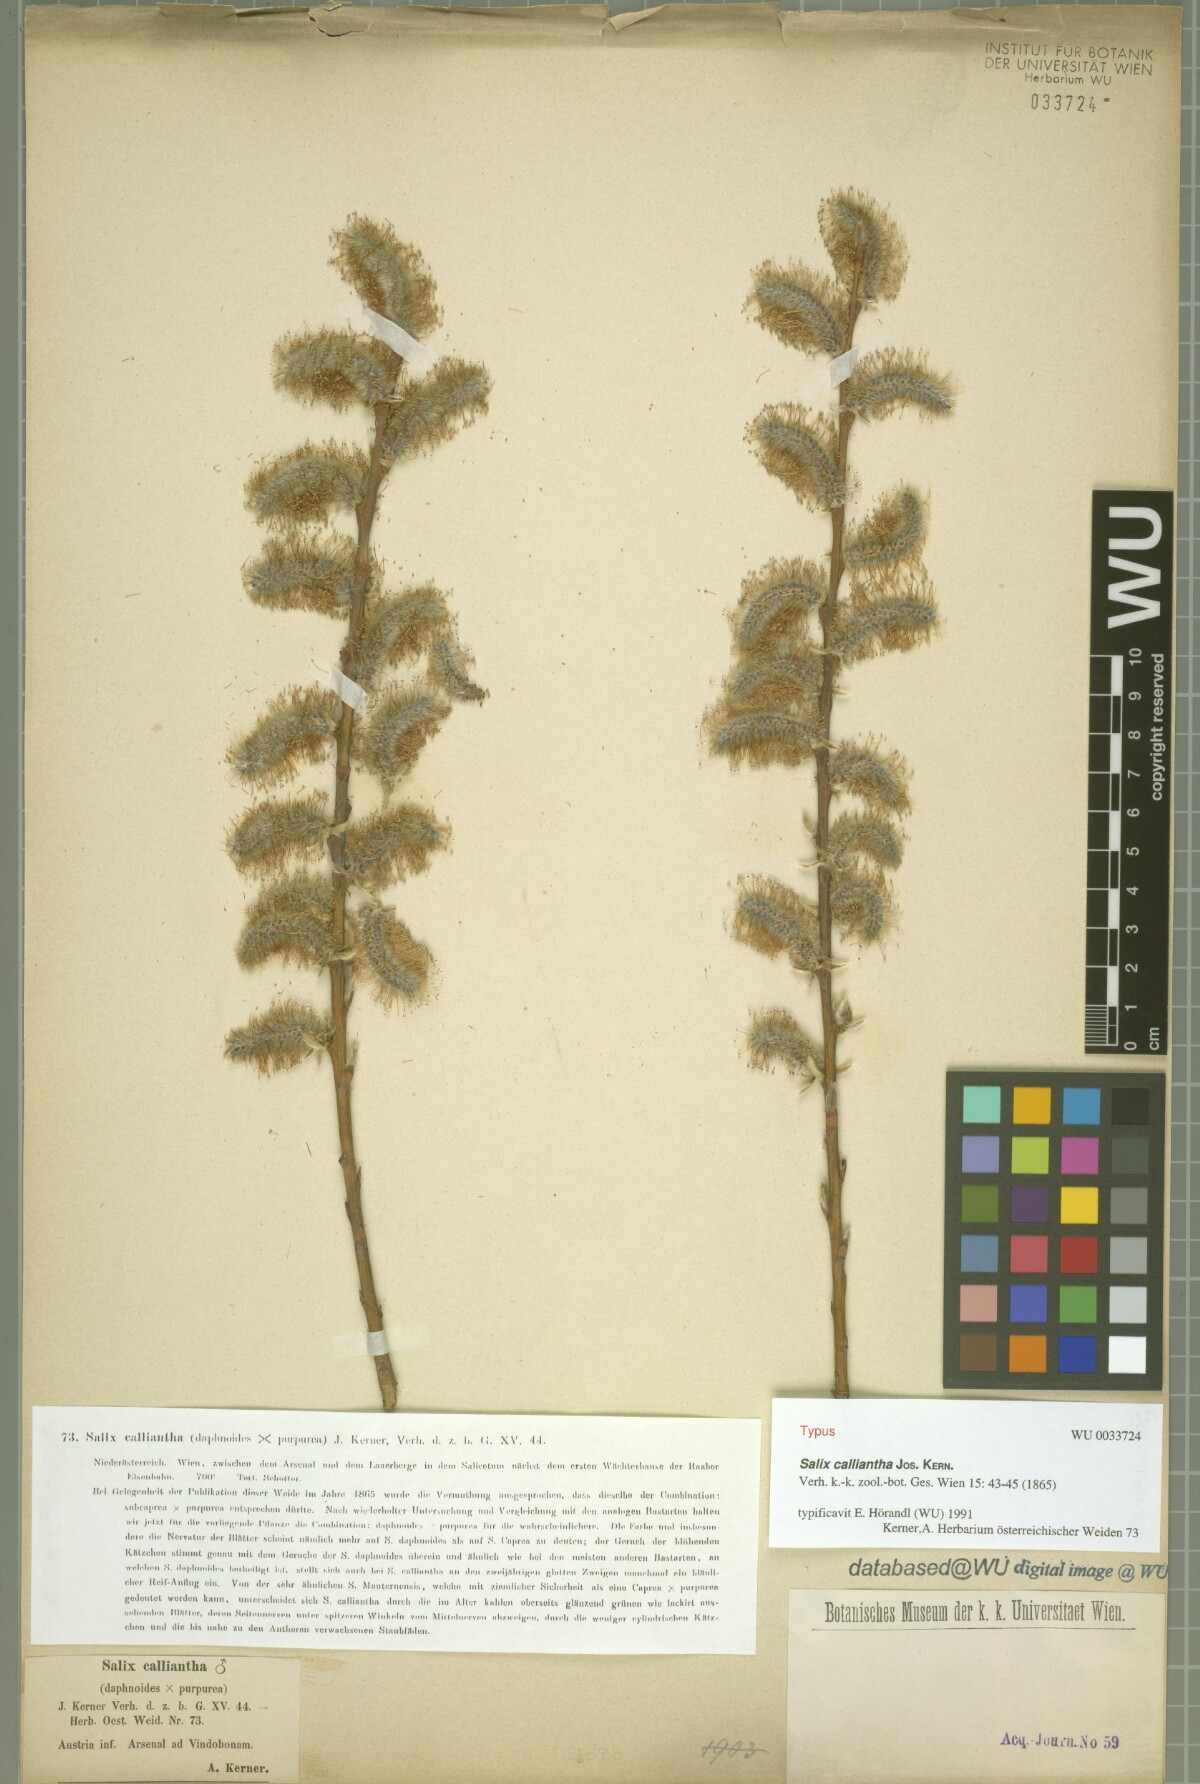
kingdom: Plantae
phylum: Tracheophyta
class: Magnoliopsida
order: Malpighiales
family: Salicaceae
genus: Salix
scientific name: Salix calliantha
